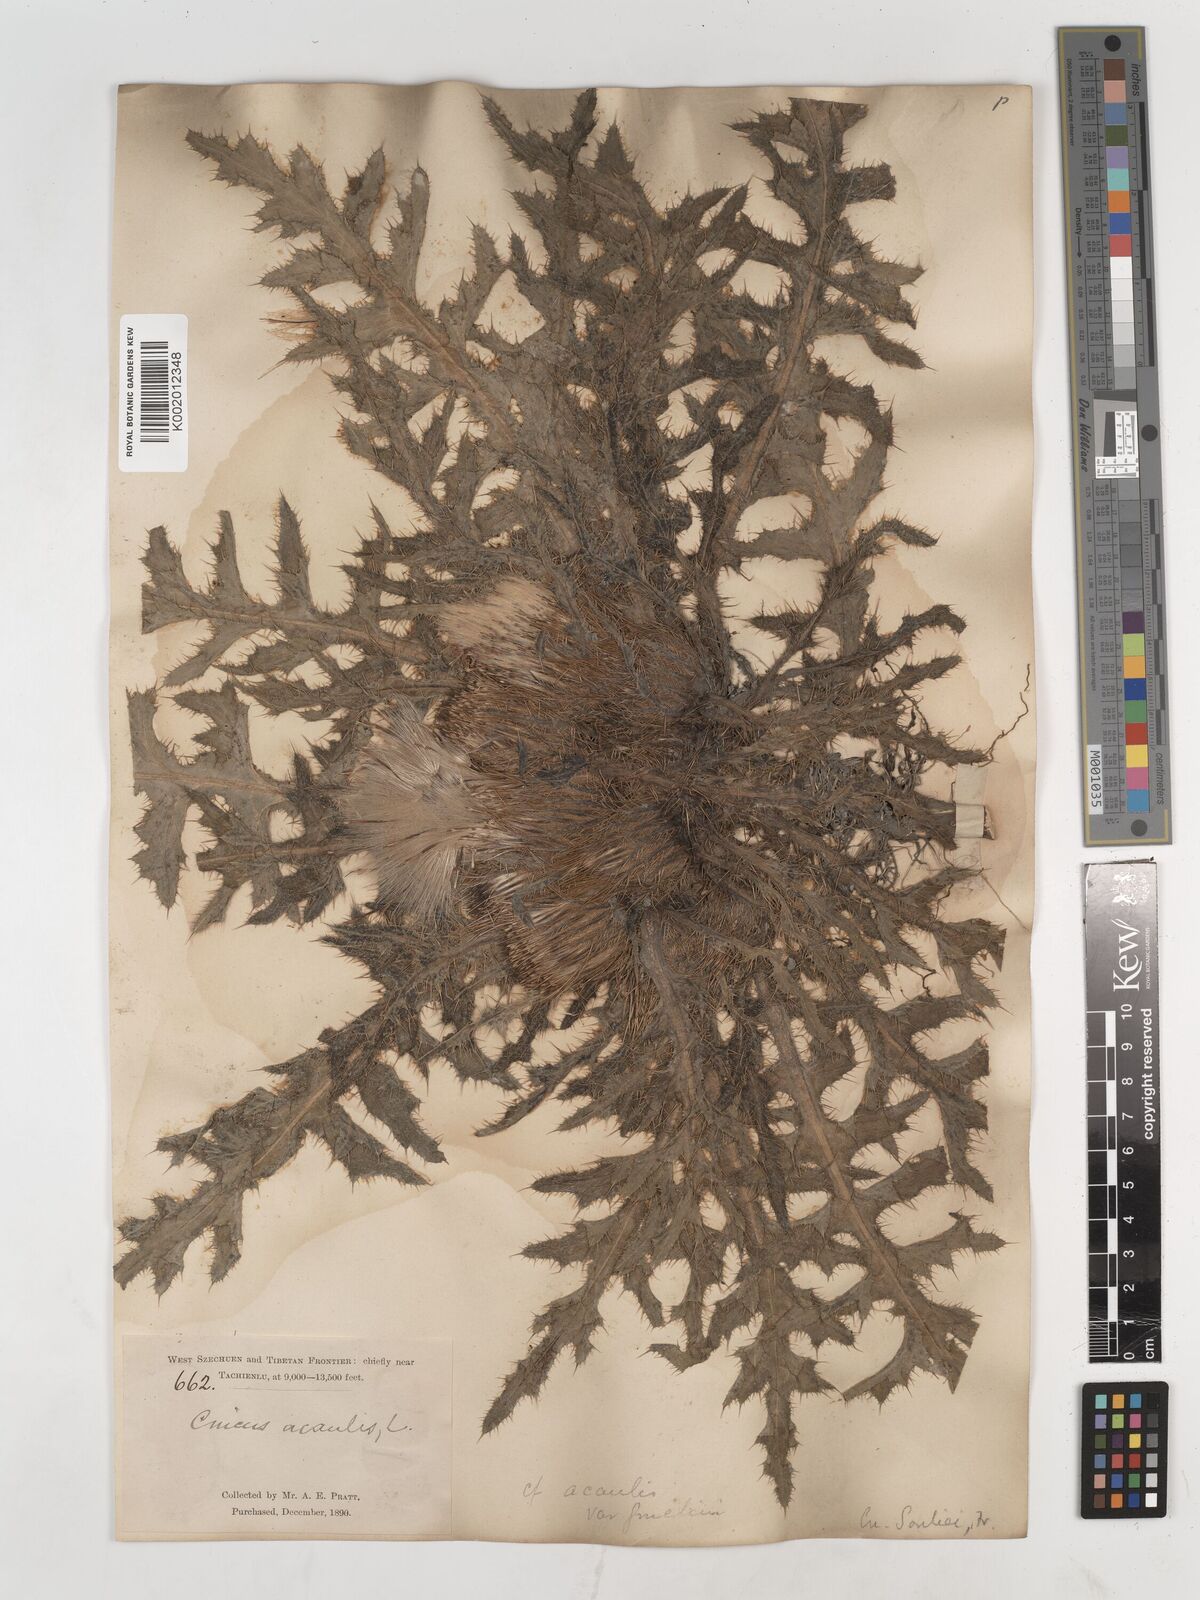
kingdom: Plantae
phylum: Tracheophyta
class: Magnoliopsida
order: Asterales
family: Asteraceae
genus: Cirsium
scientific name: Cirsium souliei
